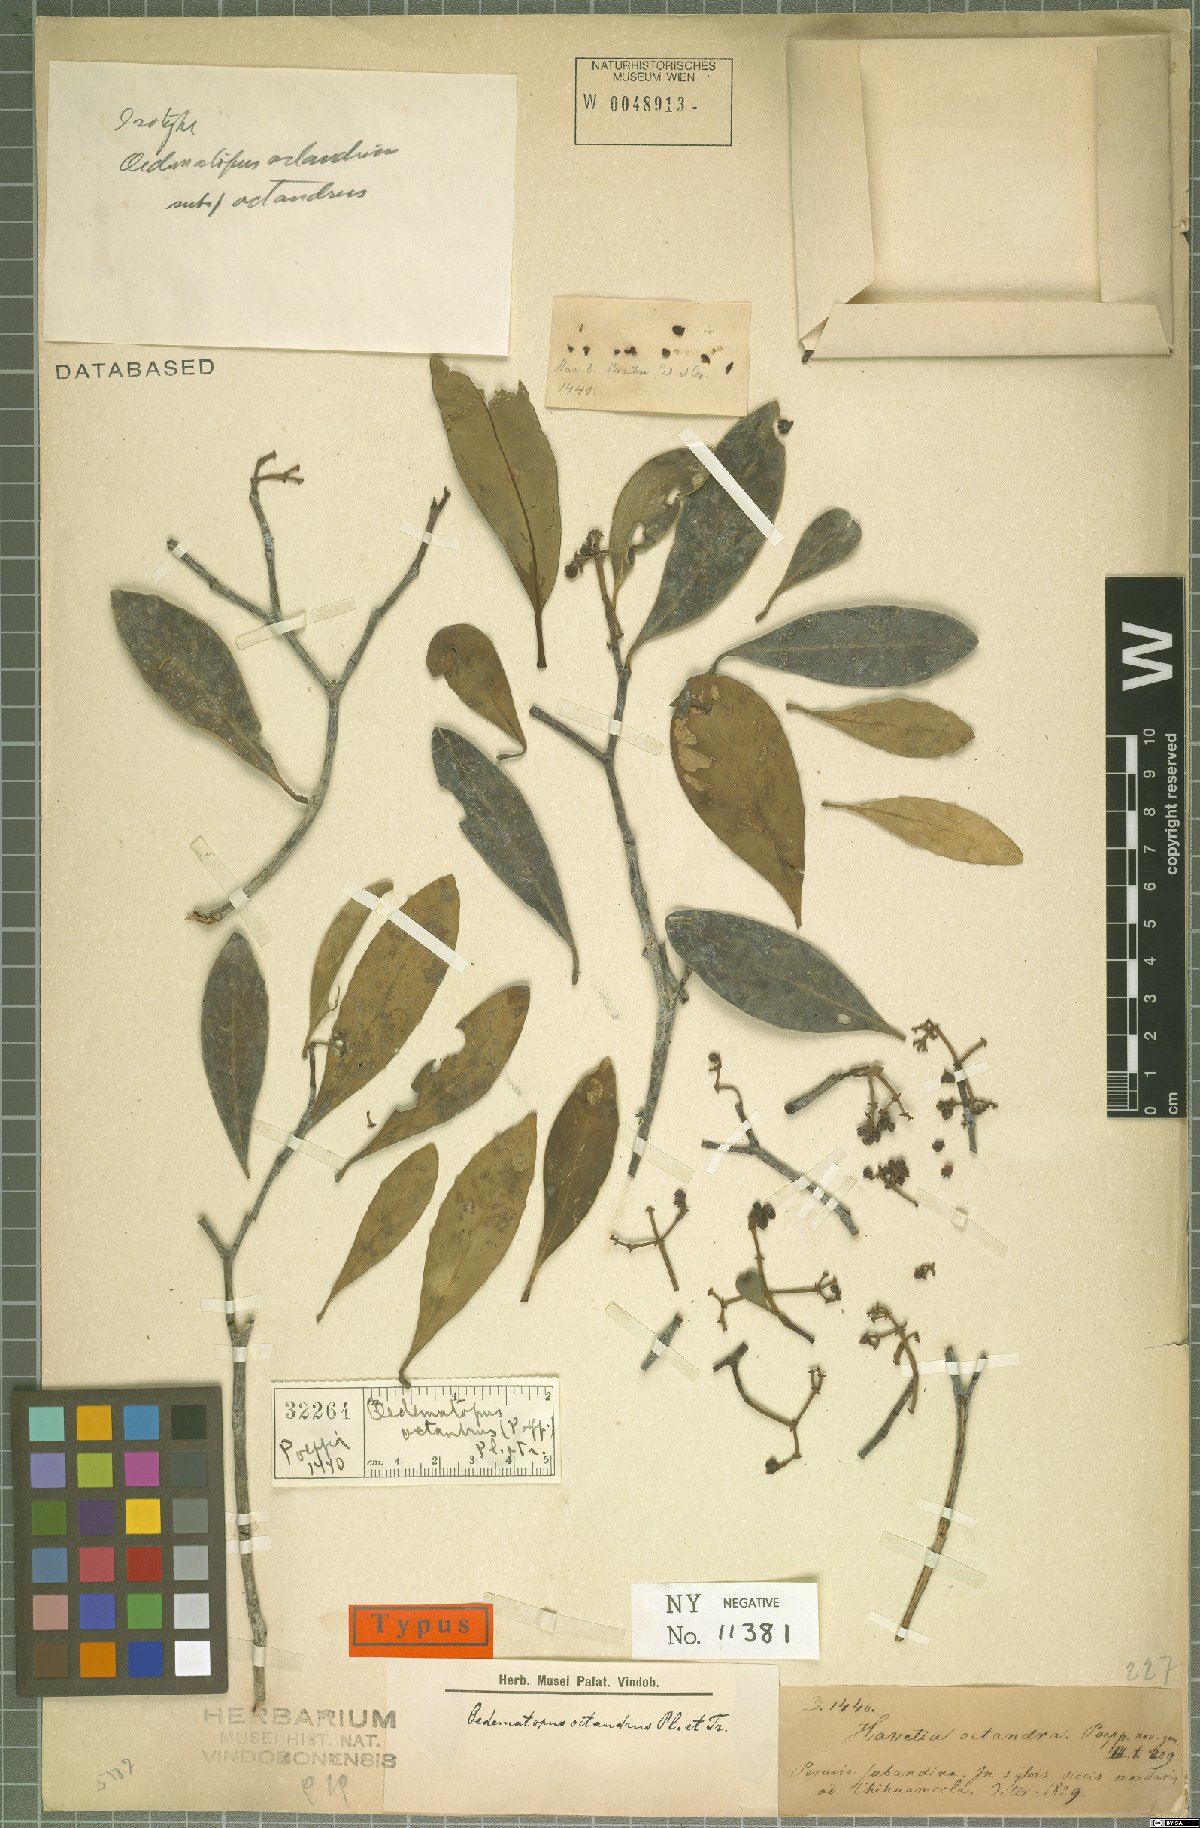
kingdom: Plantae
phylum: Tracheophyta
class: Magnoliopsida
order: Malpighiales
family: Clusiaceae
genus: Clusia
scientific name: Clusia octandra
